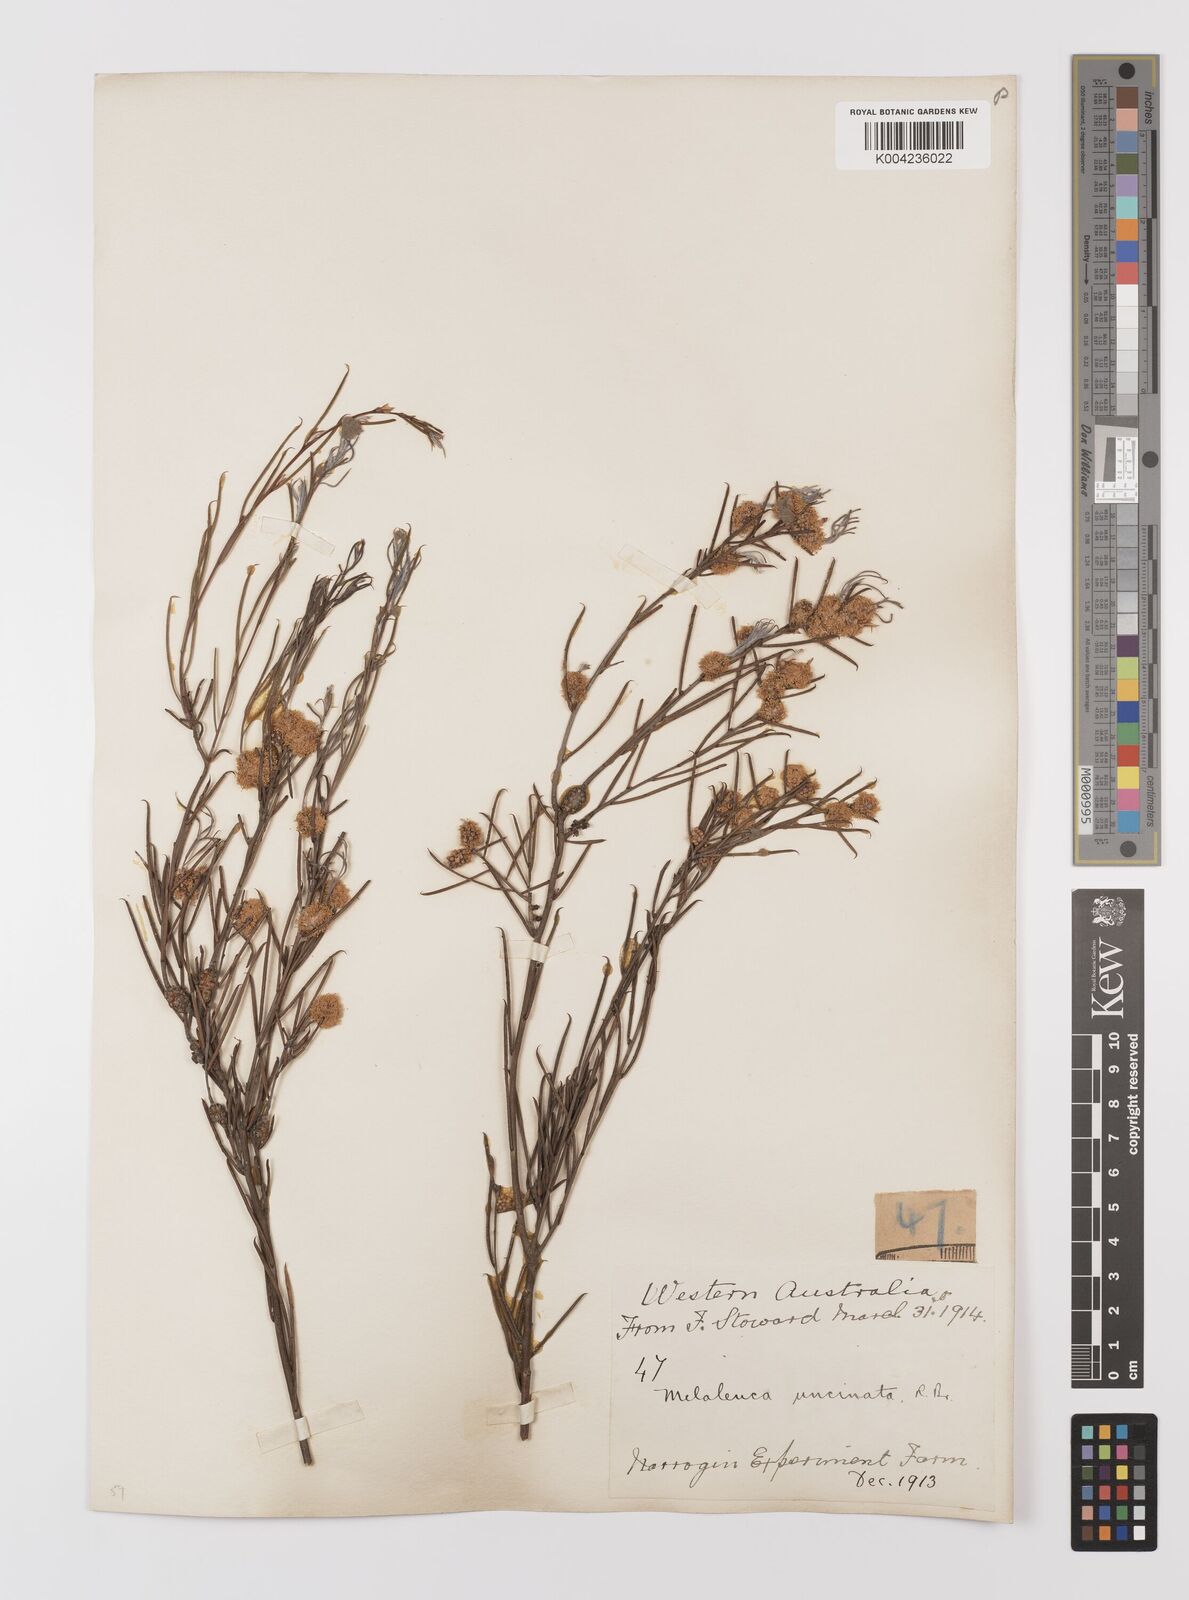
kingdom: Plantae
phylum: Tracheophyta
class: Magnoliopsida
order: Myrtales
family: Myrtaceae
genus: Melaleuca
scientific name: Melaleuca uncinata
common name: Broom honey myrtle
